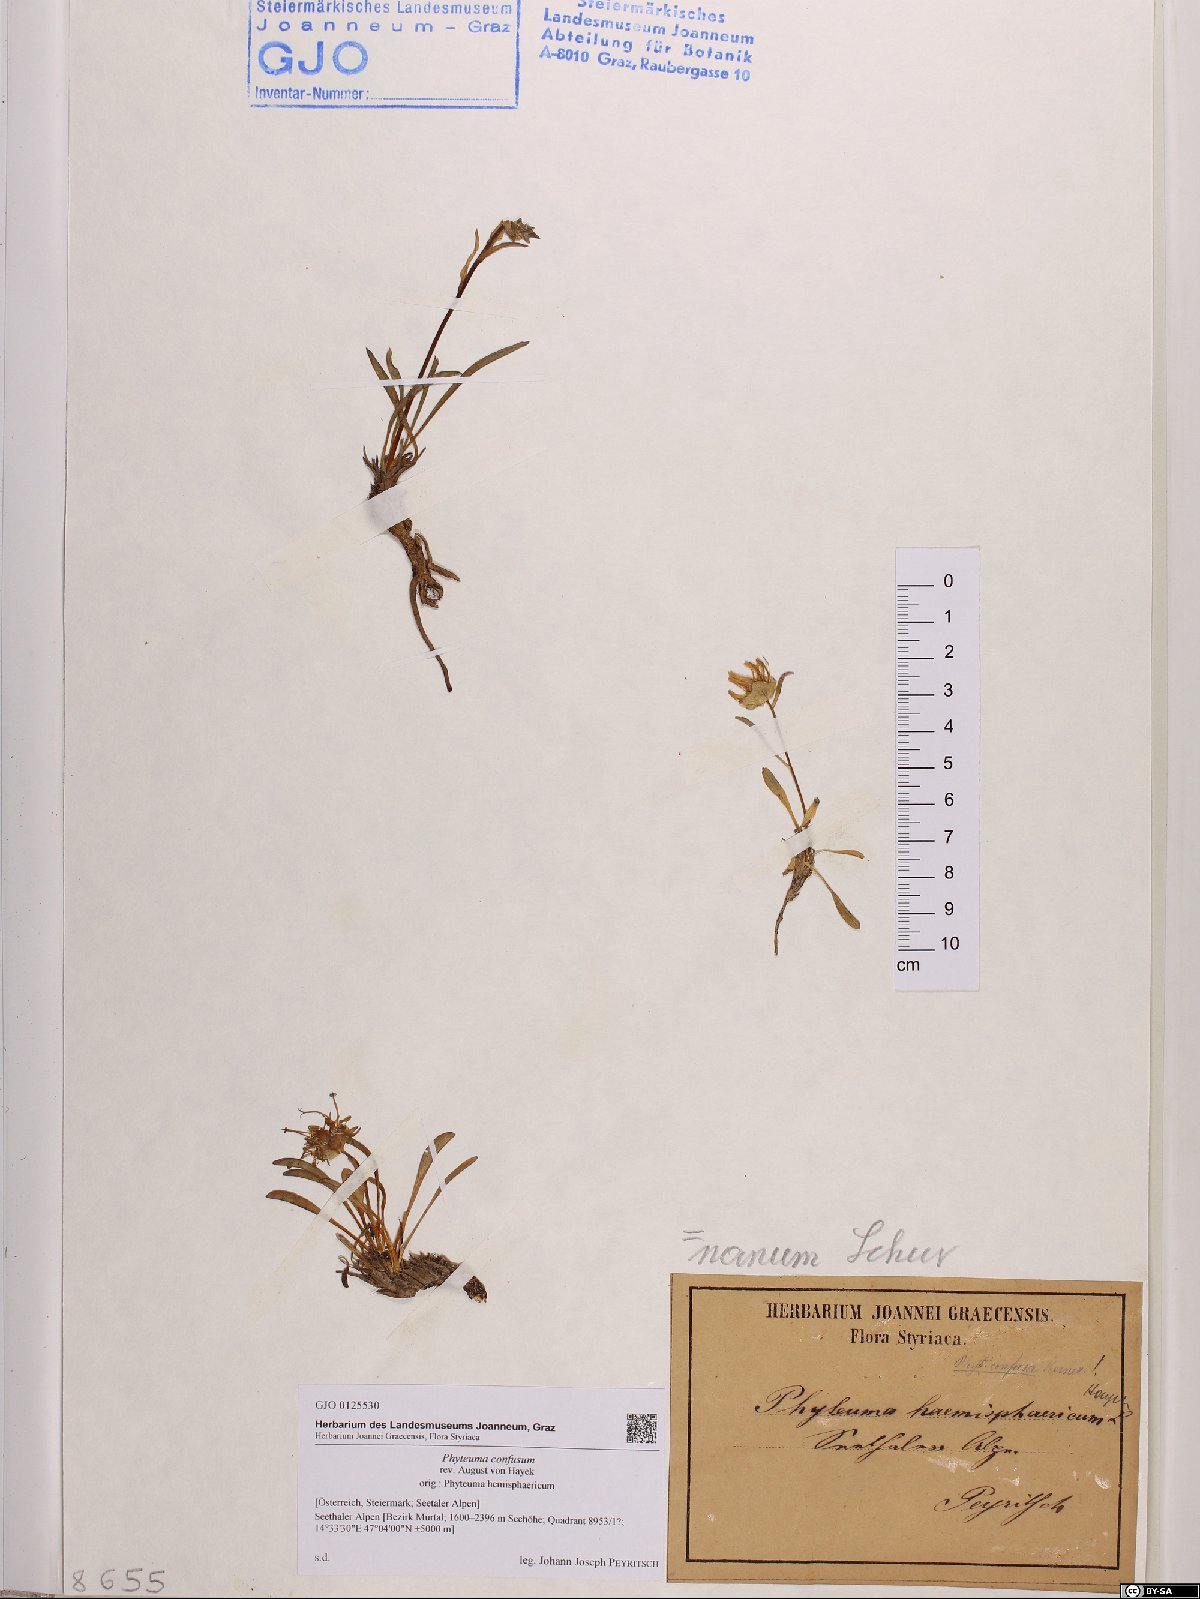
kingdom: Plantae
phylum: Tracheophyta
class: Magnoliopsida
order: Asterales
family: Campanulaceae
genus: Phyteuma
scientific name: Phyteuma confusum
